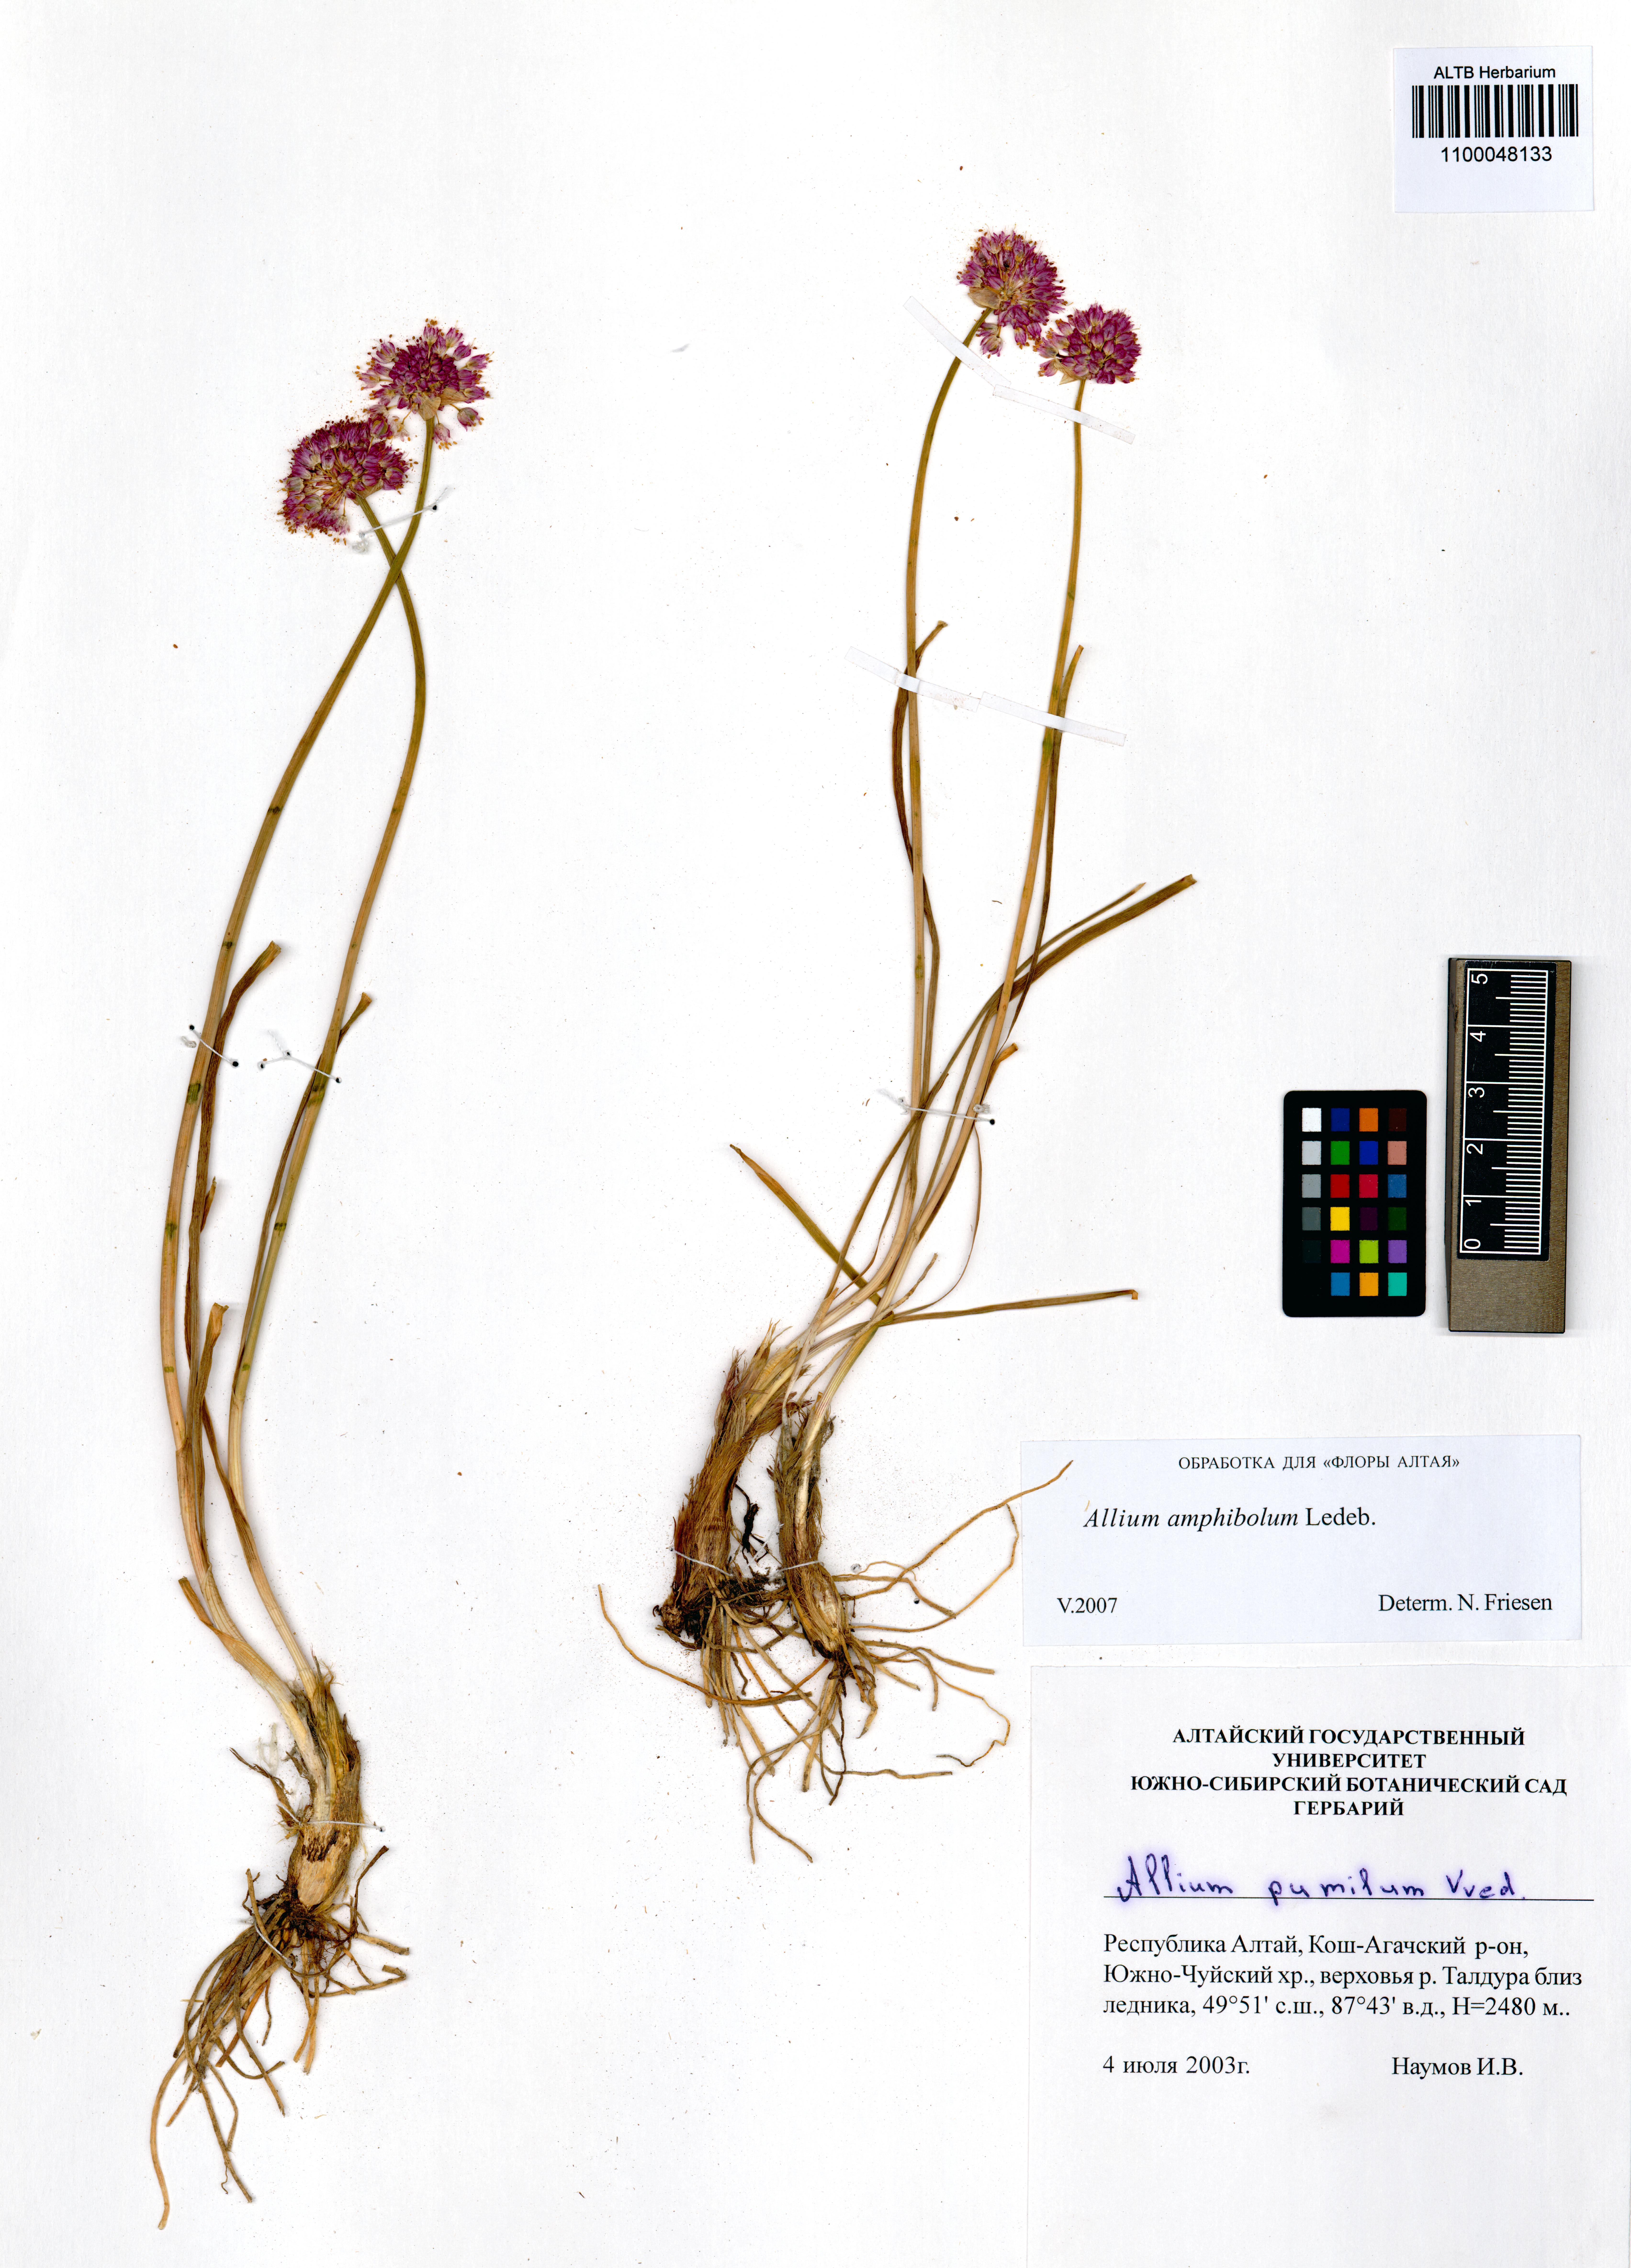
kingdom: Plantae
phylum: Tracheophyta
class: Liliopsida
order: Asparagales
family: Amaryllidaceae
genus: Allium
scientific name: Allium amphibolum
